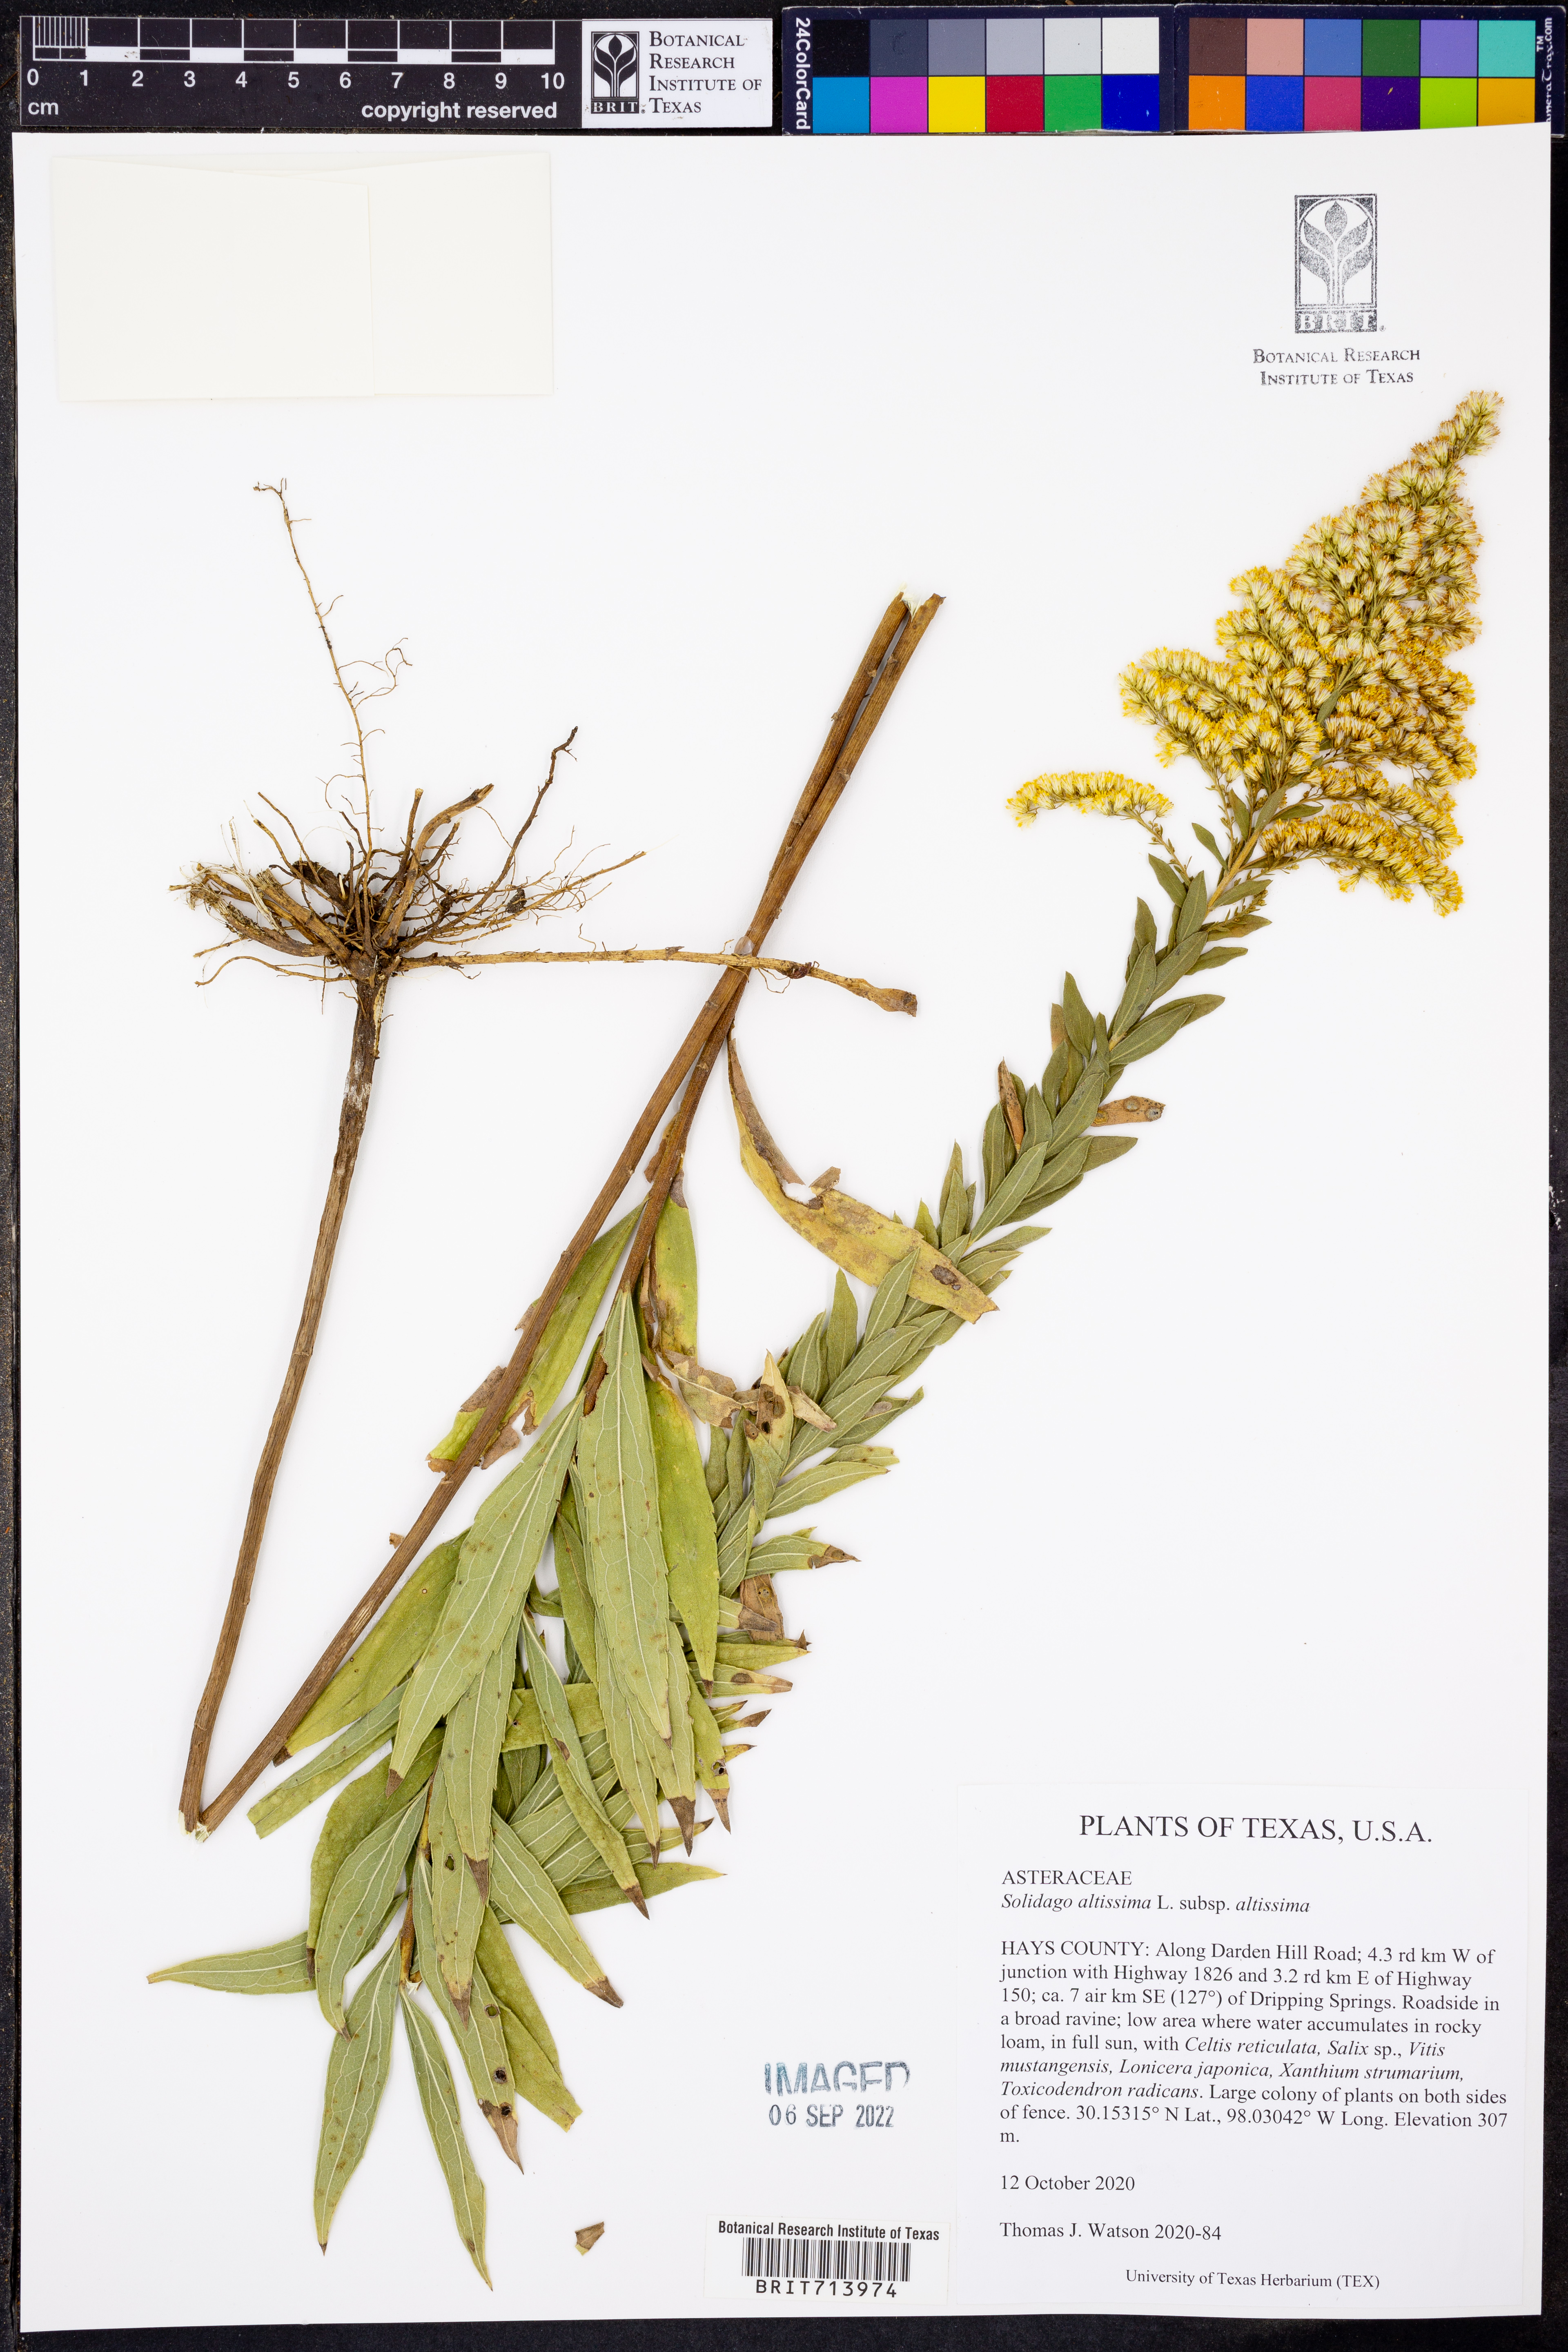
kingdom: Plantae
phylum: Tracheophyta
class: Magnoliopsida
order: Asterales
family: Asteraceae
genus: Solidago
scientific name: Solidago altissima
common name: Late goldenrod
